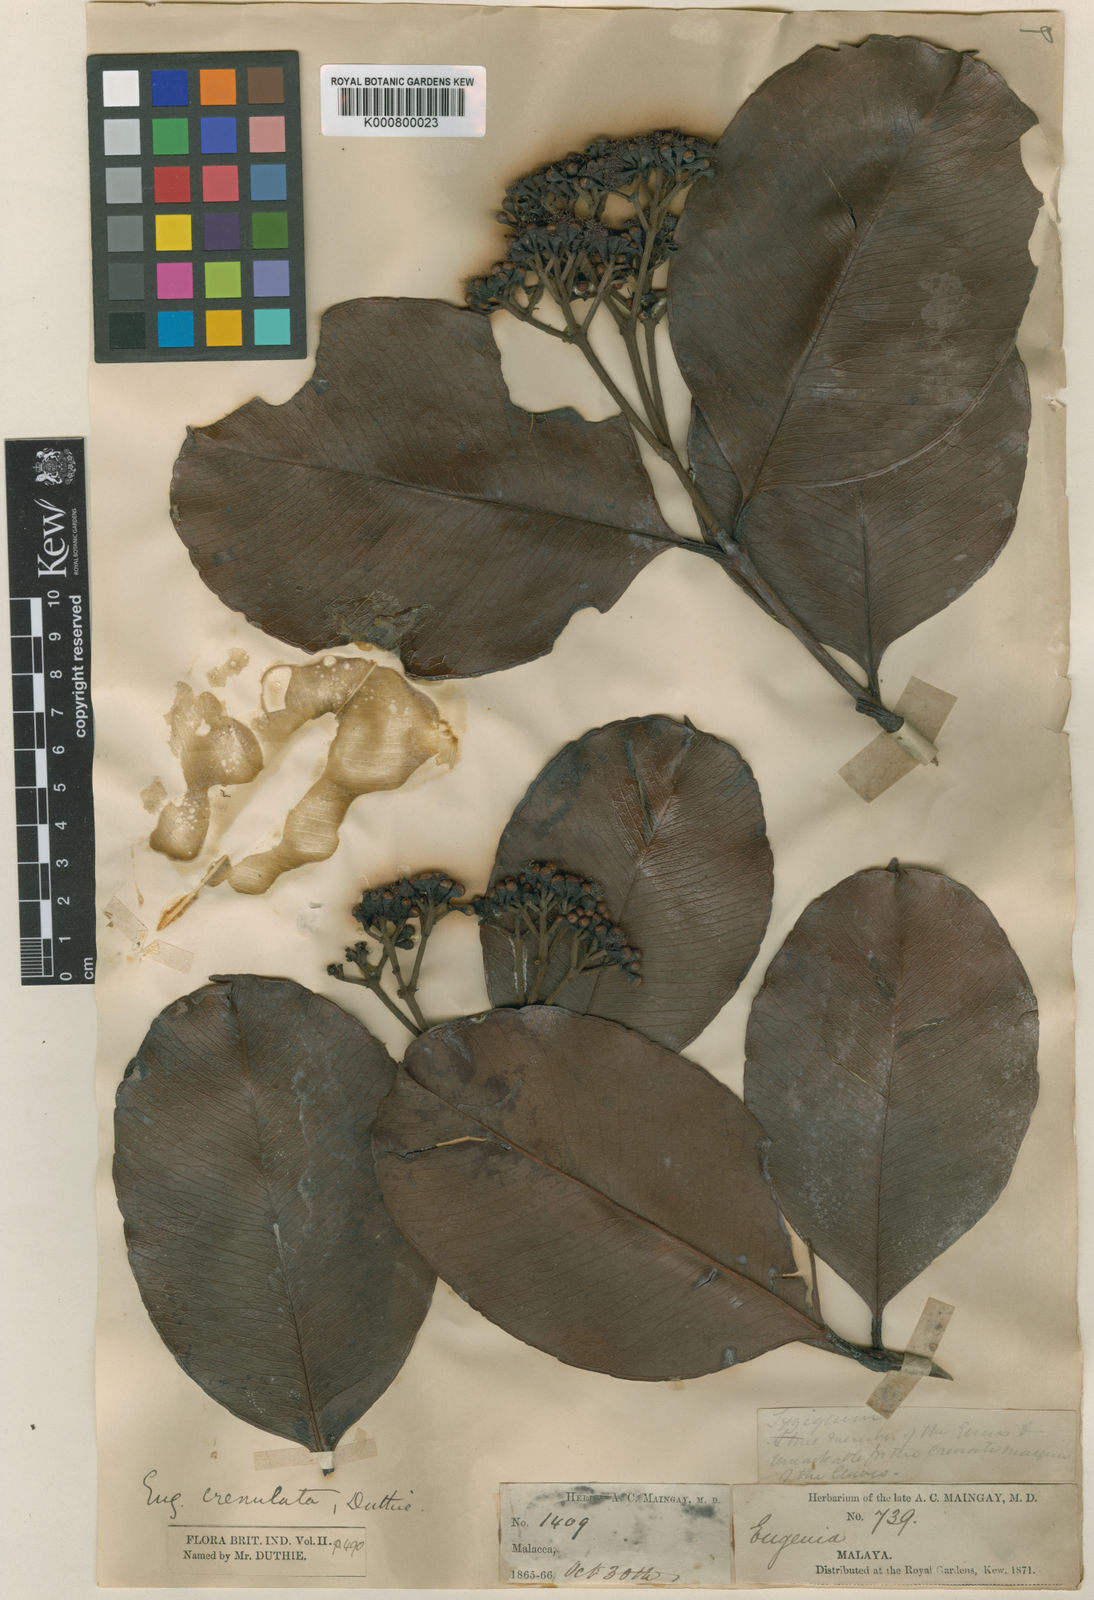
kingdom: Plantae
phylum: Tracheophyta
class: Magnoliopsida
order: Myrtales
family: Myrtaceae
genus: Syzygium
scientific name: Syzygium subcrenatum
